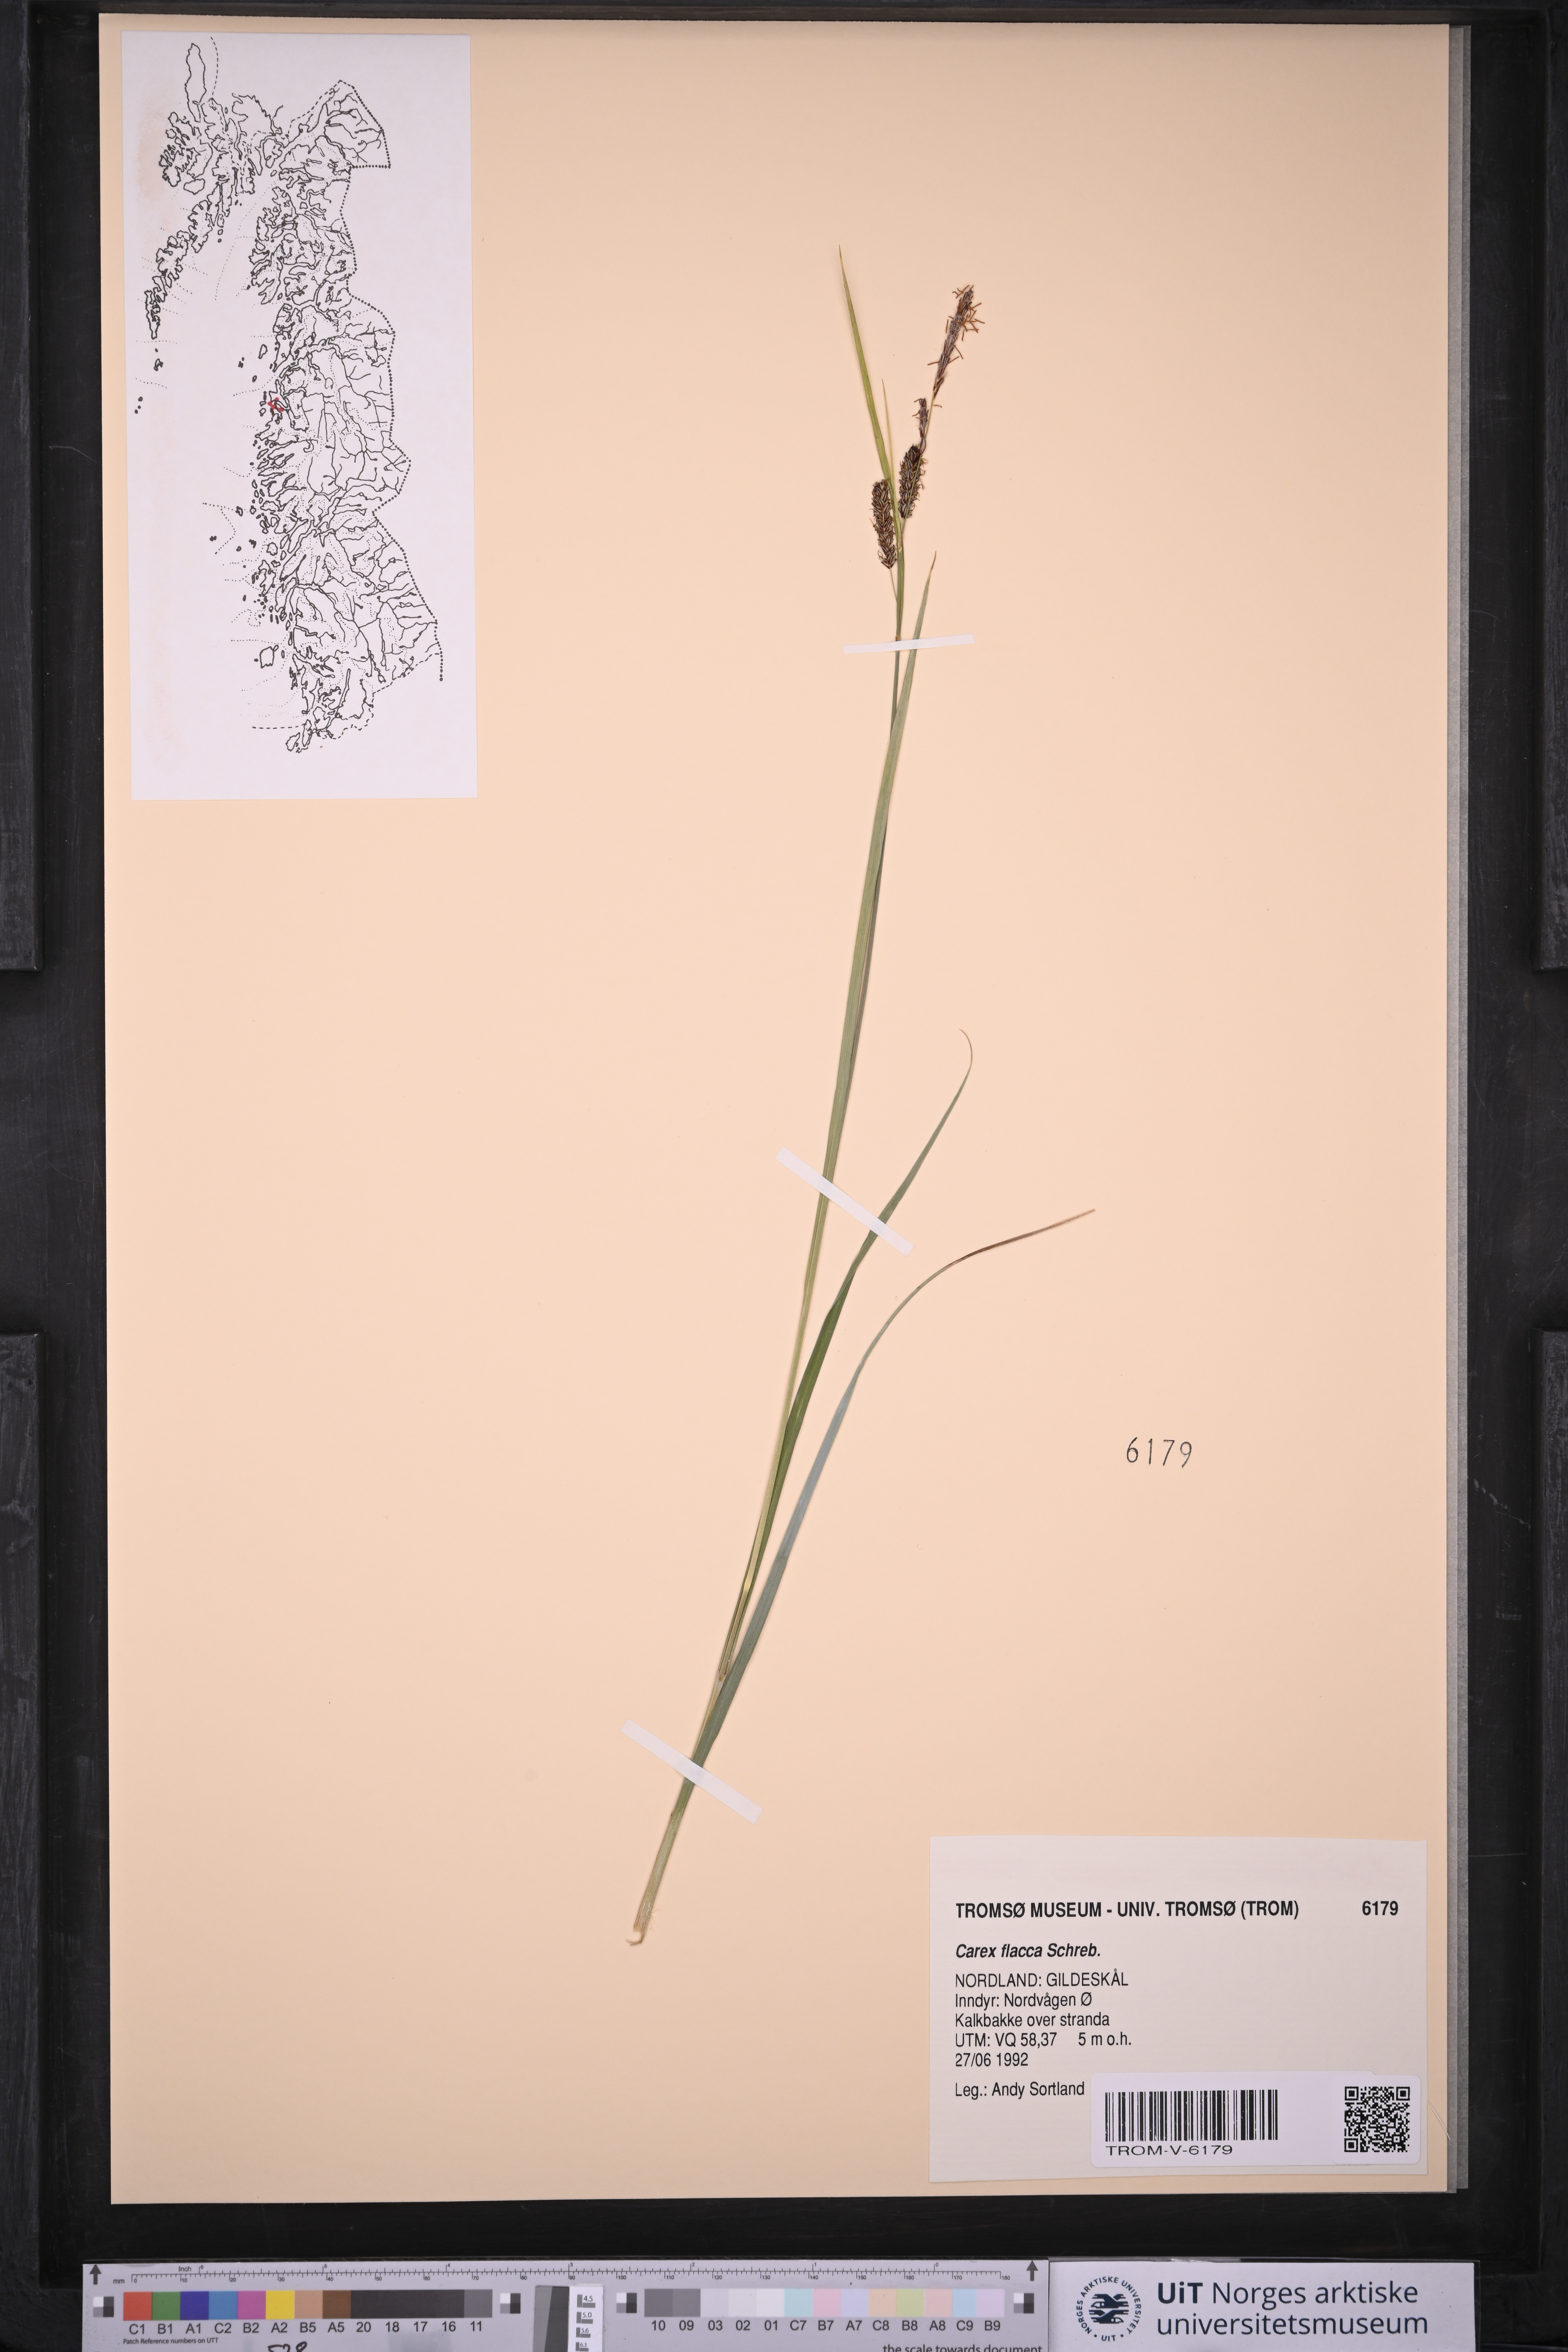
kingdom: Plantae
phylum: Tracheophyta
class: Liliopsida
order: Poales
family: Cyperaceae
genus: Carex
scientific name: Carex flacca
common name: Glaucous sedge
